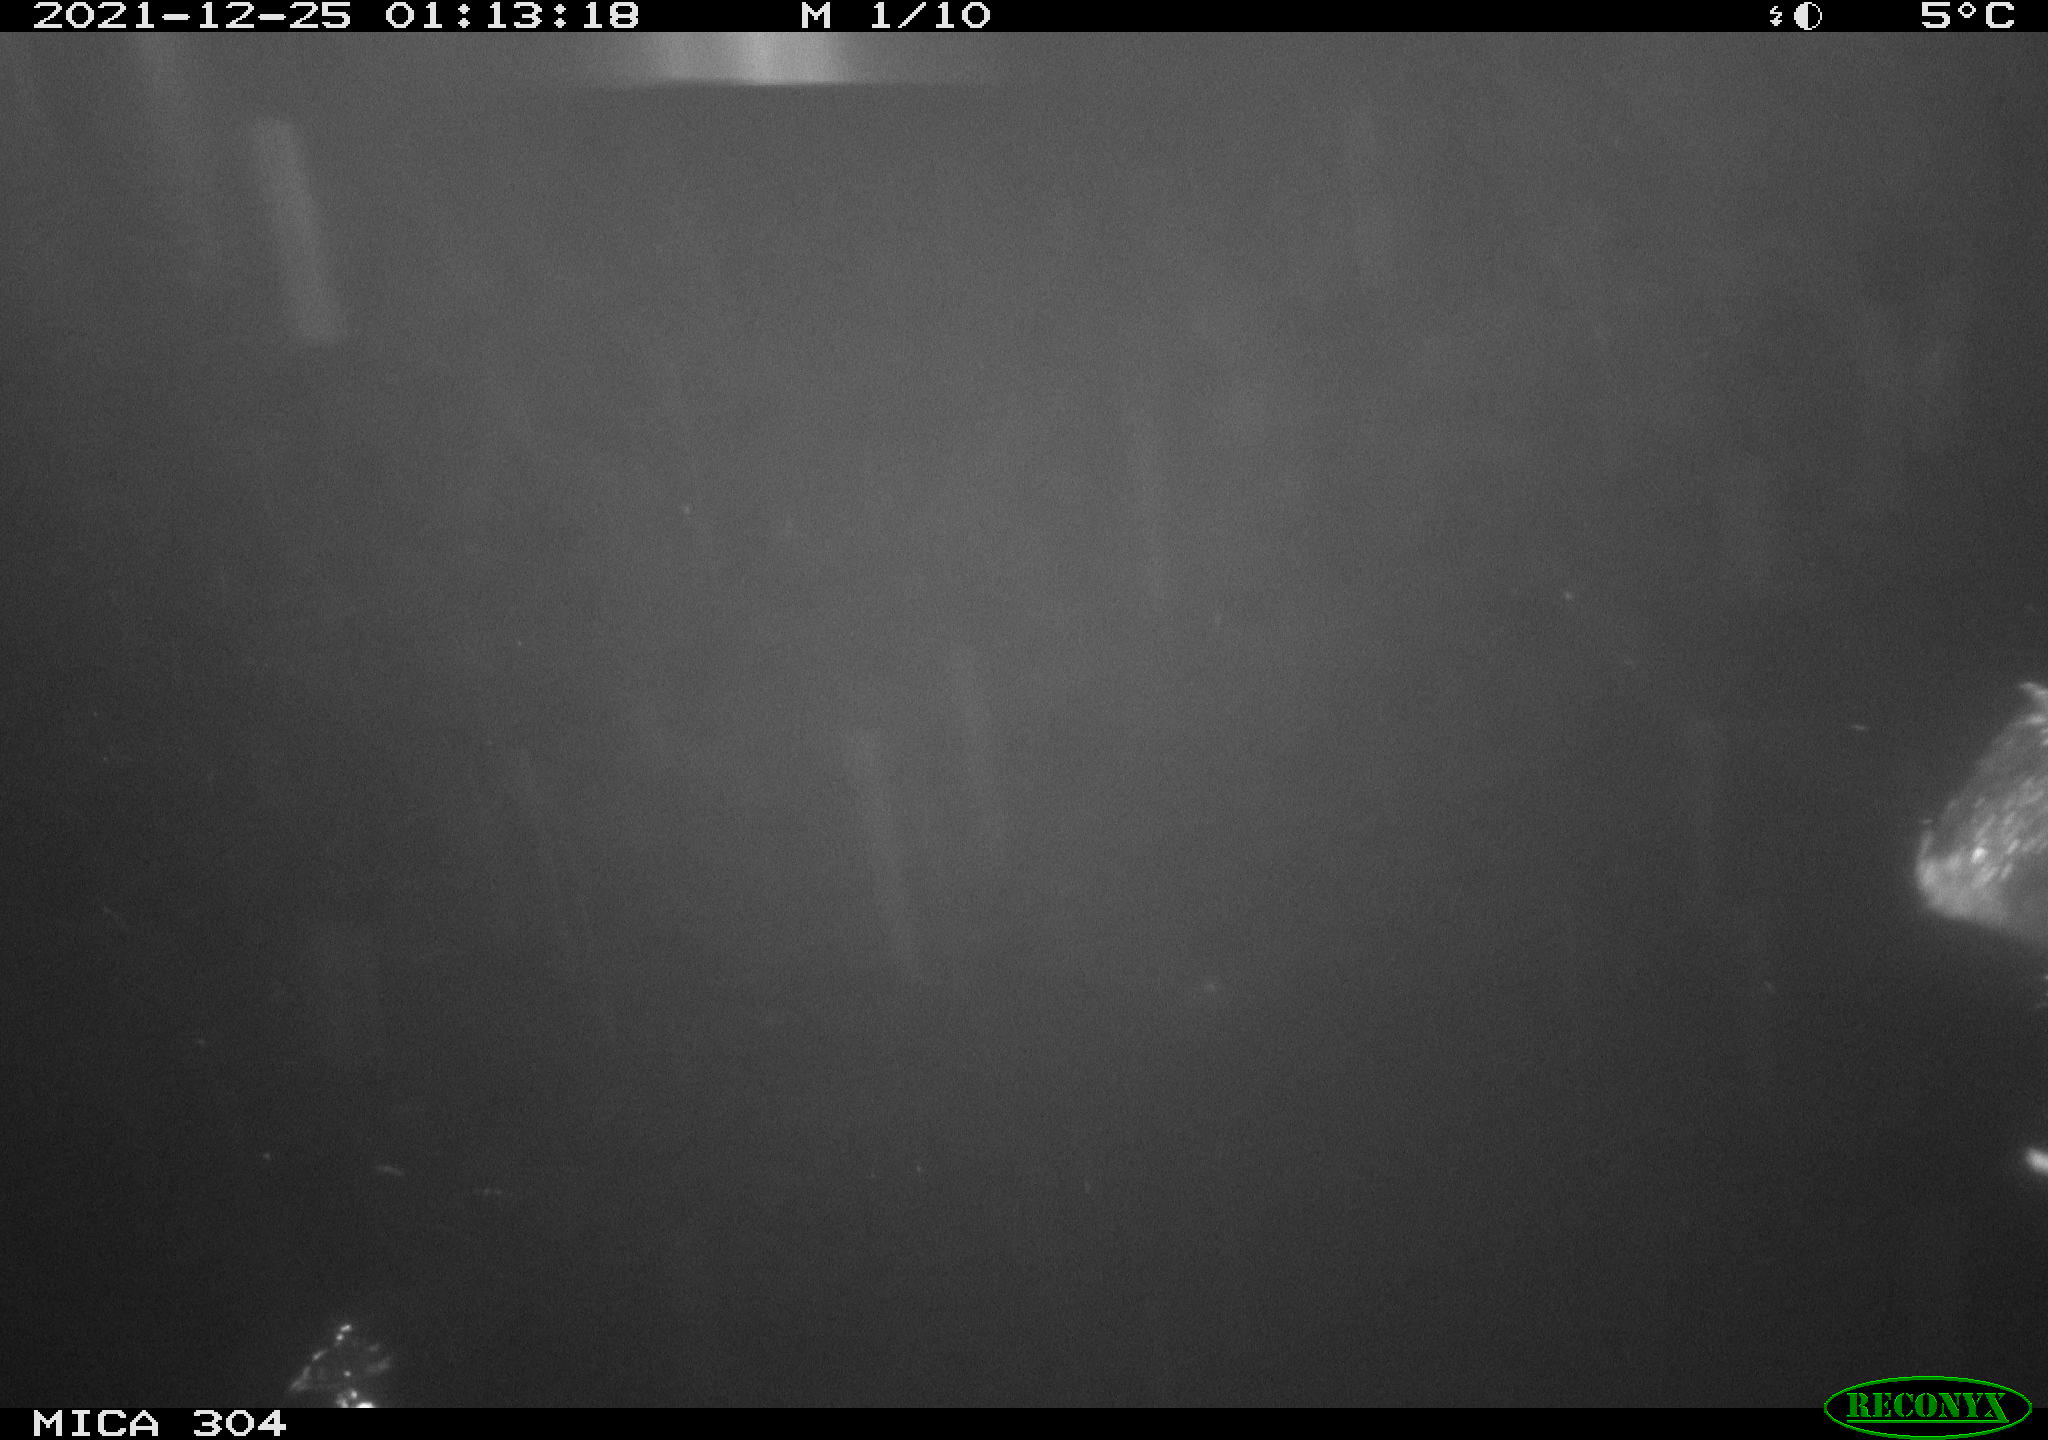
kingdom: Animalia
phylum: Chordata
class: Aves
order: Anseriformes
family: Anatidae
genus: Anas
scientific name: Anas
